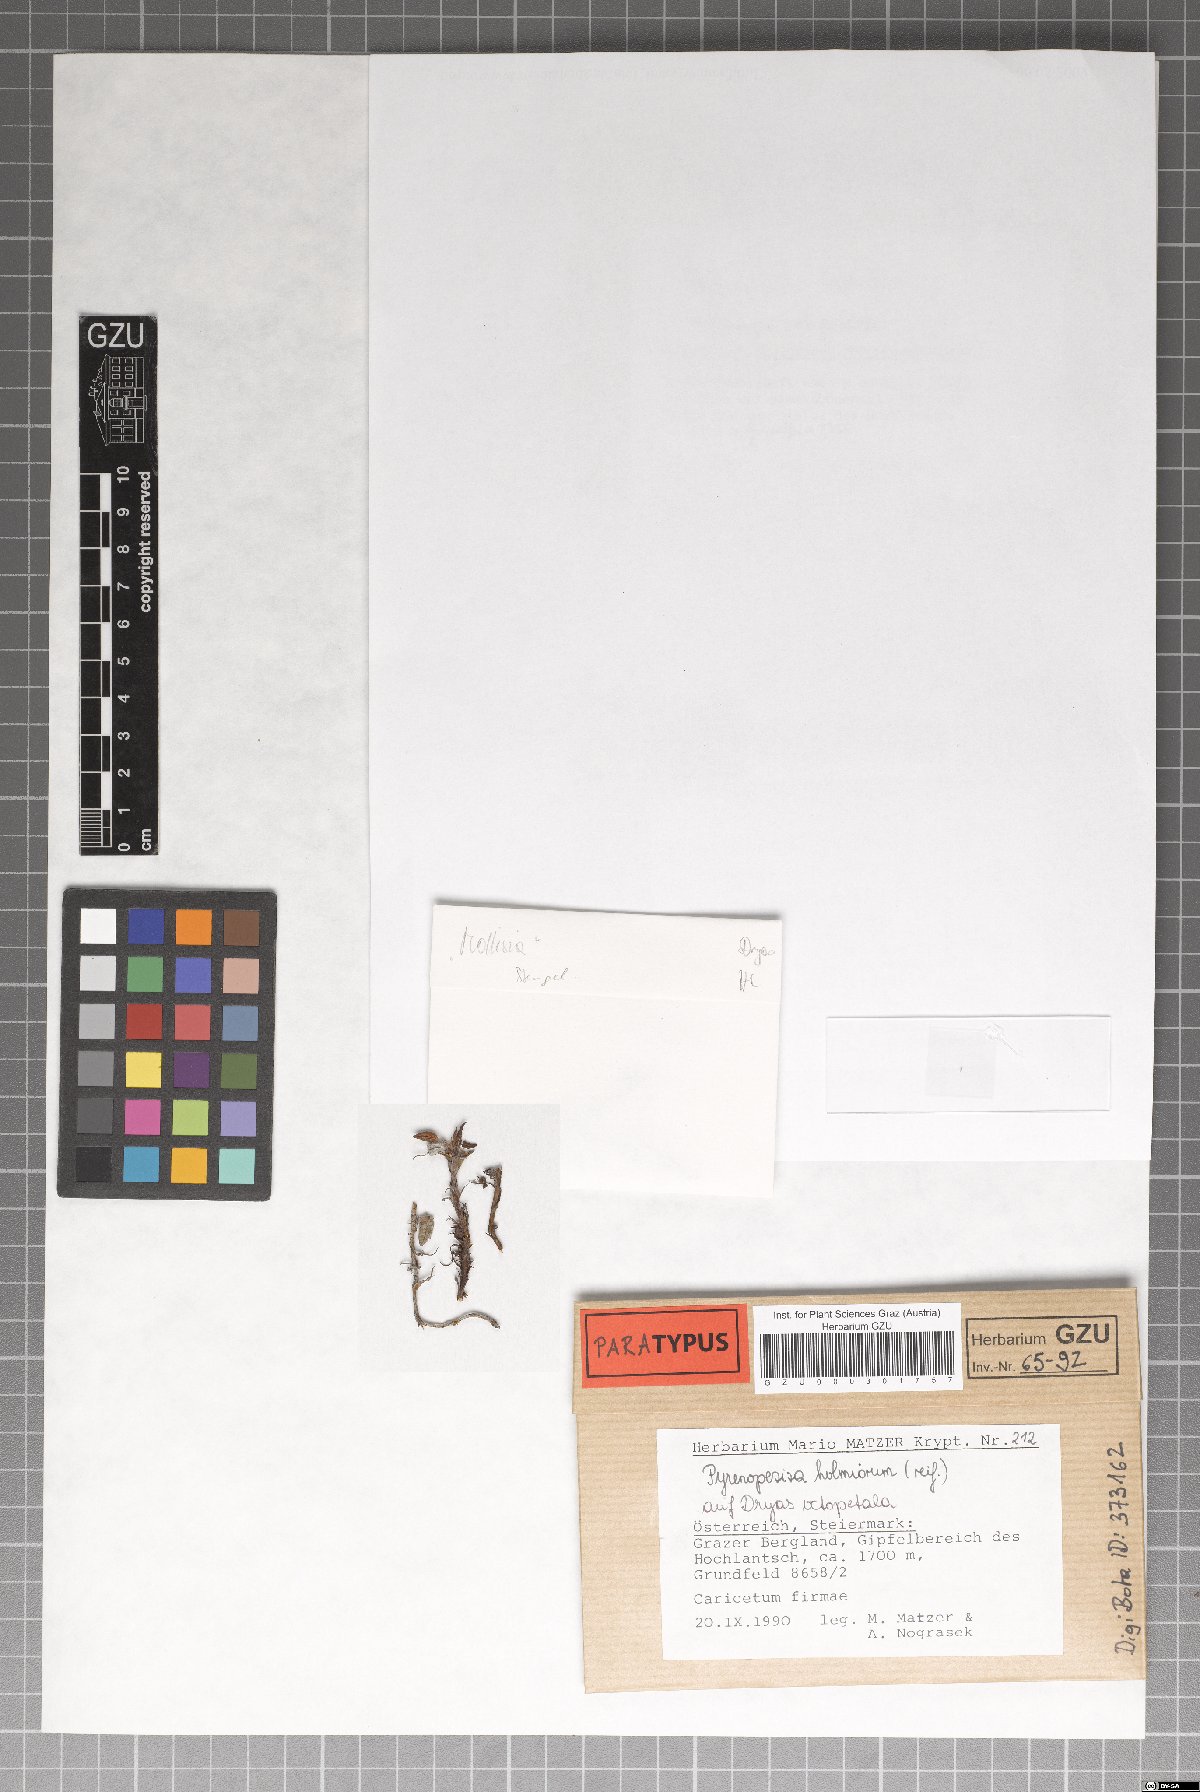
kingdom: Fungi
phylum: Ascomycota
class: Leotiomycetes
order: Helotiales
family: Ploettnerulaceae
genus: Pyrenopeziza
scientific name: Pyrenopeziza holmiorum
